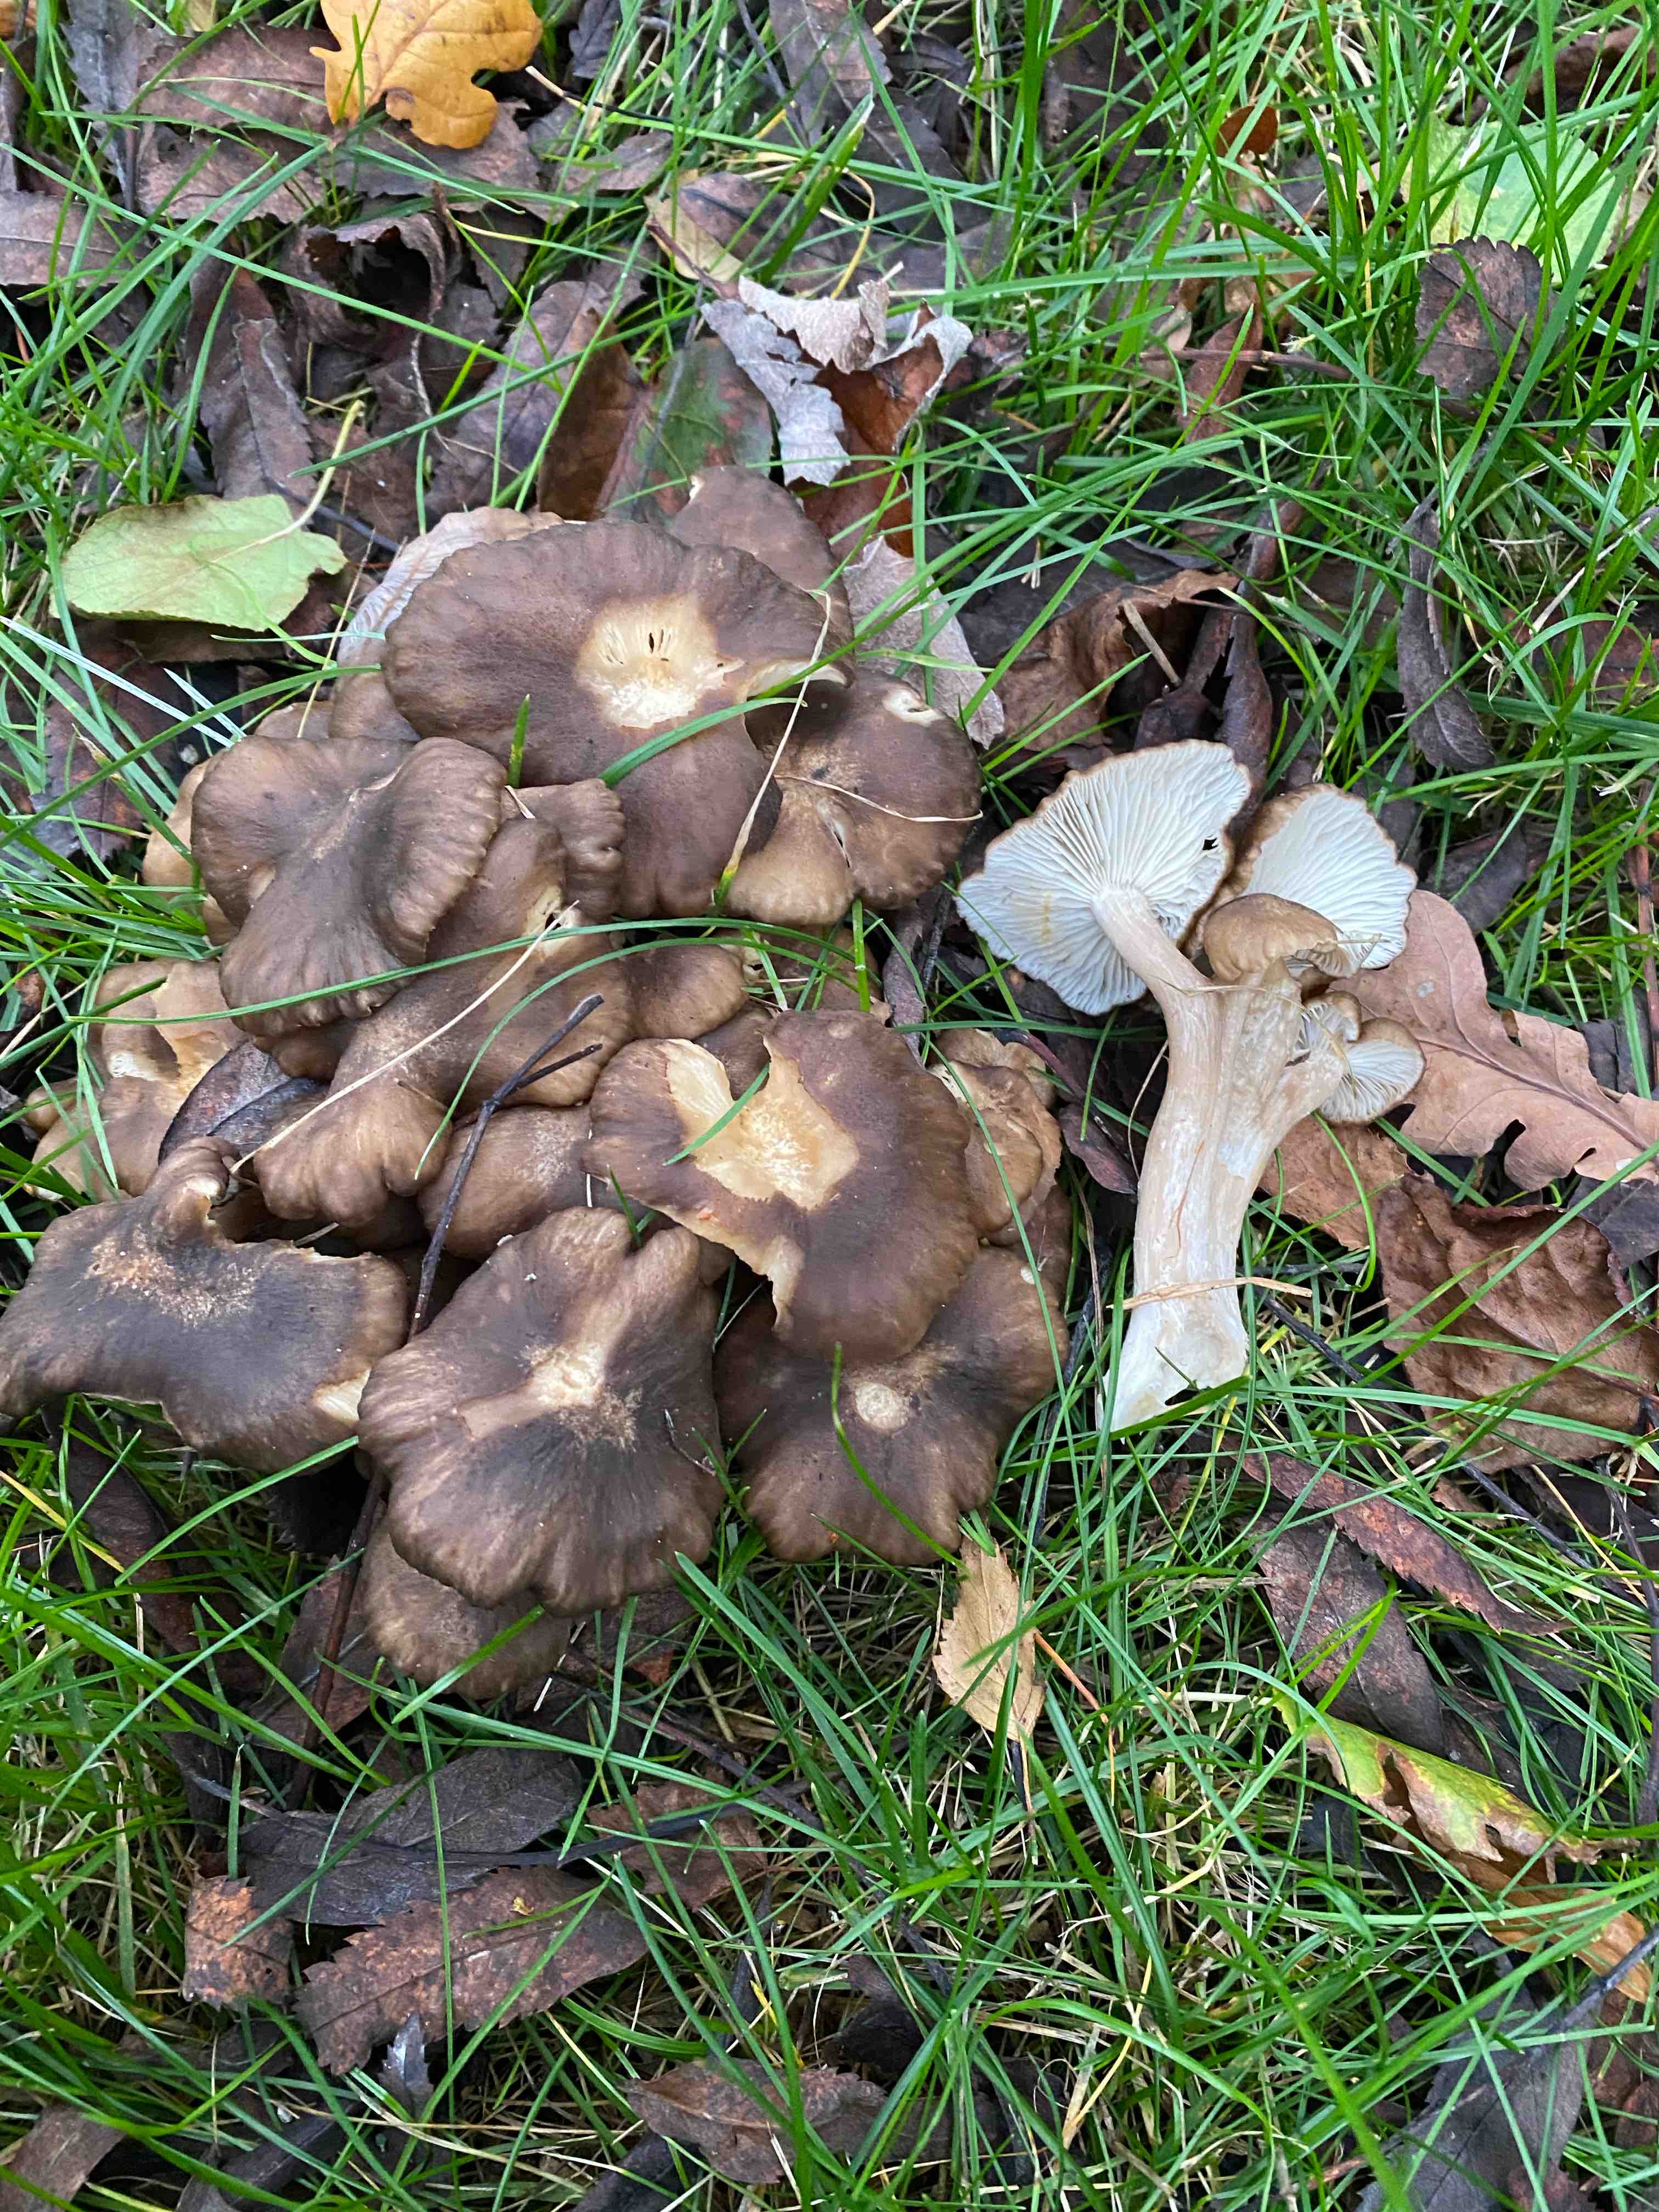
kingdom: Fungi
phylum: Basidiomycota
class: Agaricomycetes
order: Agaricales
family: Lyophyllaceae
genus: Lyophyllum
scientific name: Lyophyllum decastes
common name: røggrå gråblad
